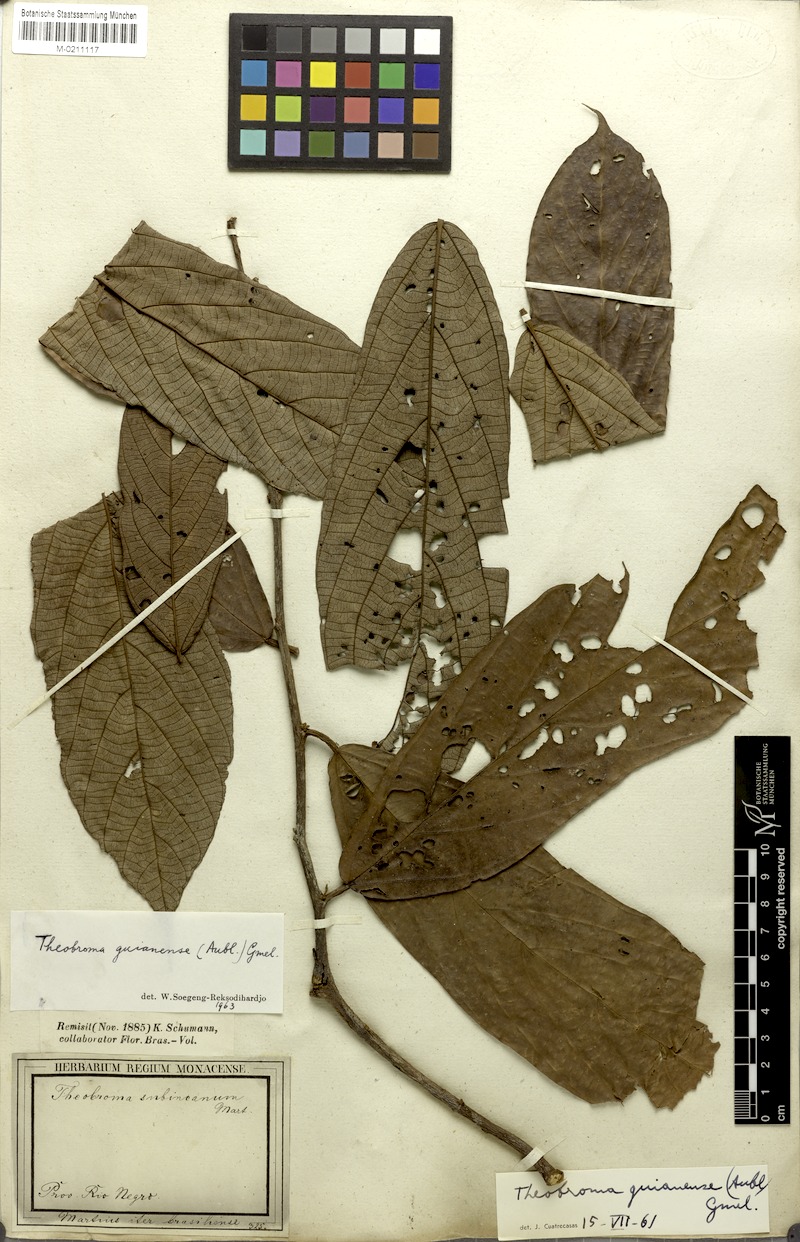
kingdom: Plantae
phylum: Tracheophyta
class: Magnoliopsida
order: Malvales
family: Malvaceae
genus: Theobroma
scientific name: Theobroma subincanum
